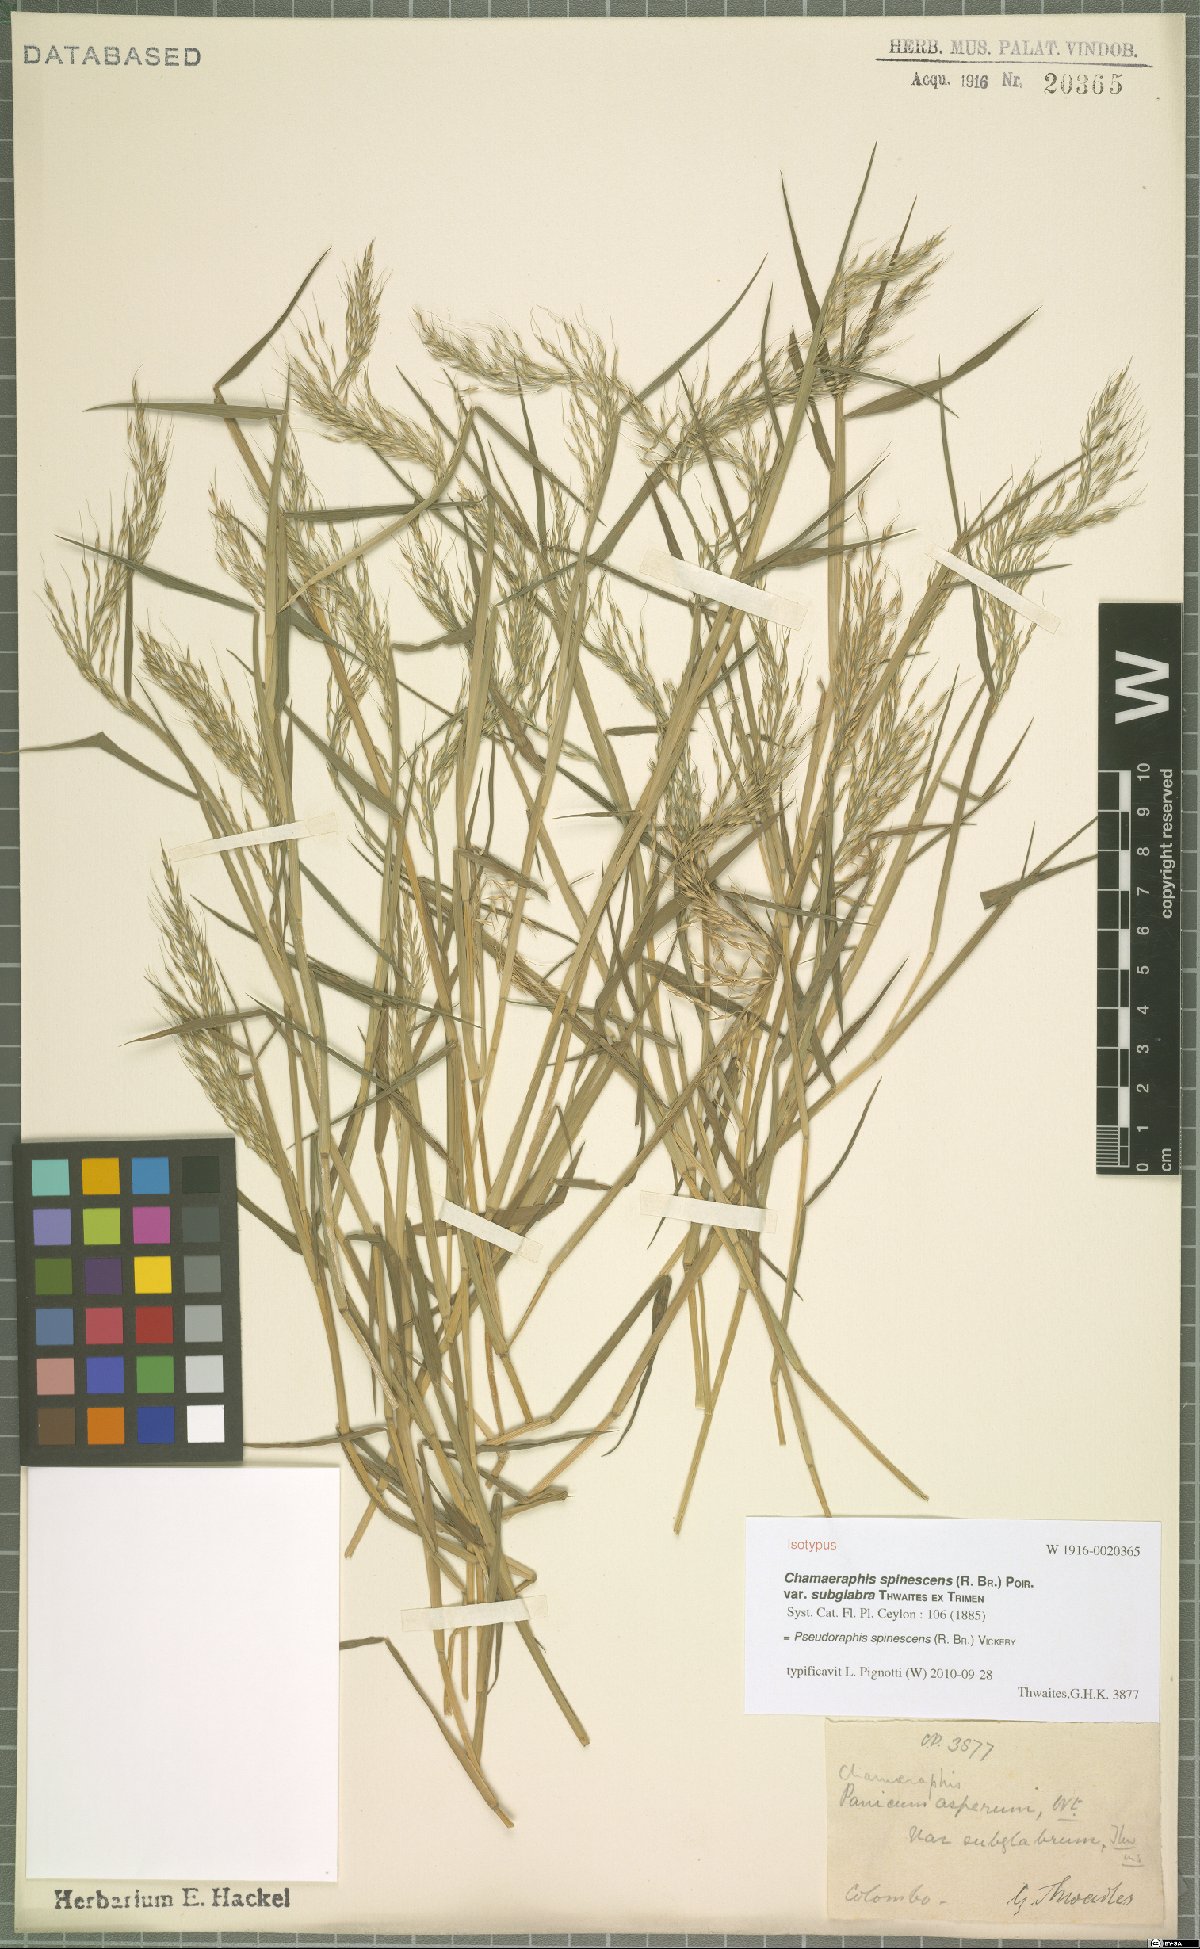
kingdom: Plantae
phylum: Tracheophyta
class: Liliopsida
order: Poales
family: Poaceae
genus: Pseudoraphis
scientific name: Pseudoraphis spinescens
